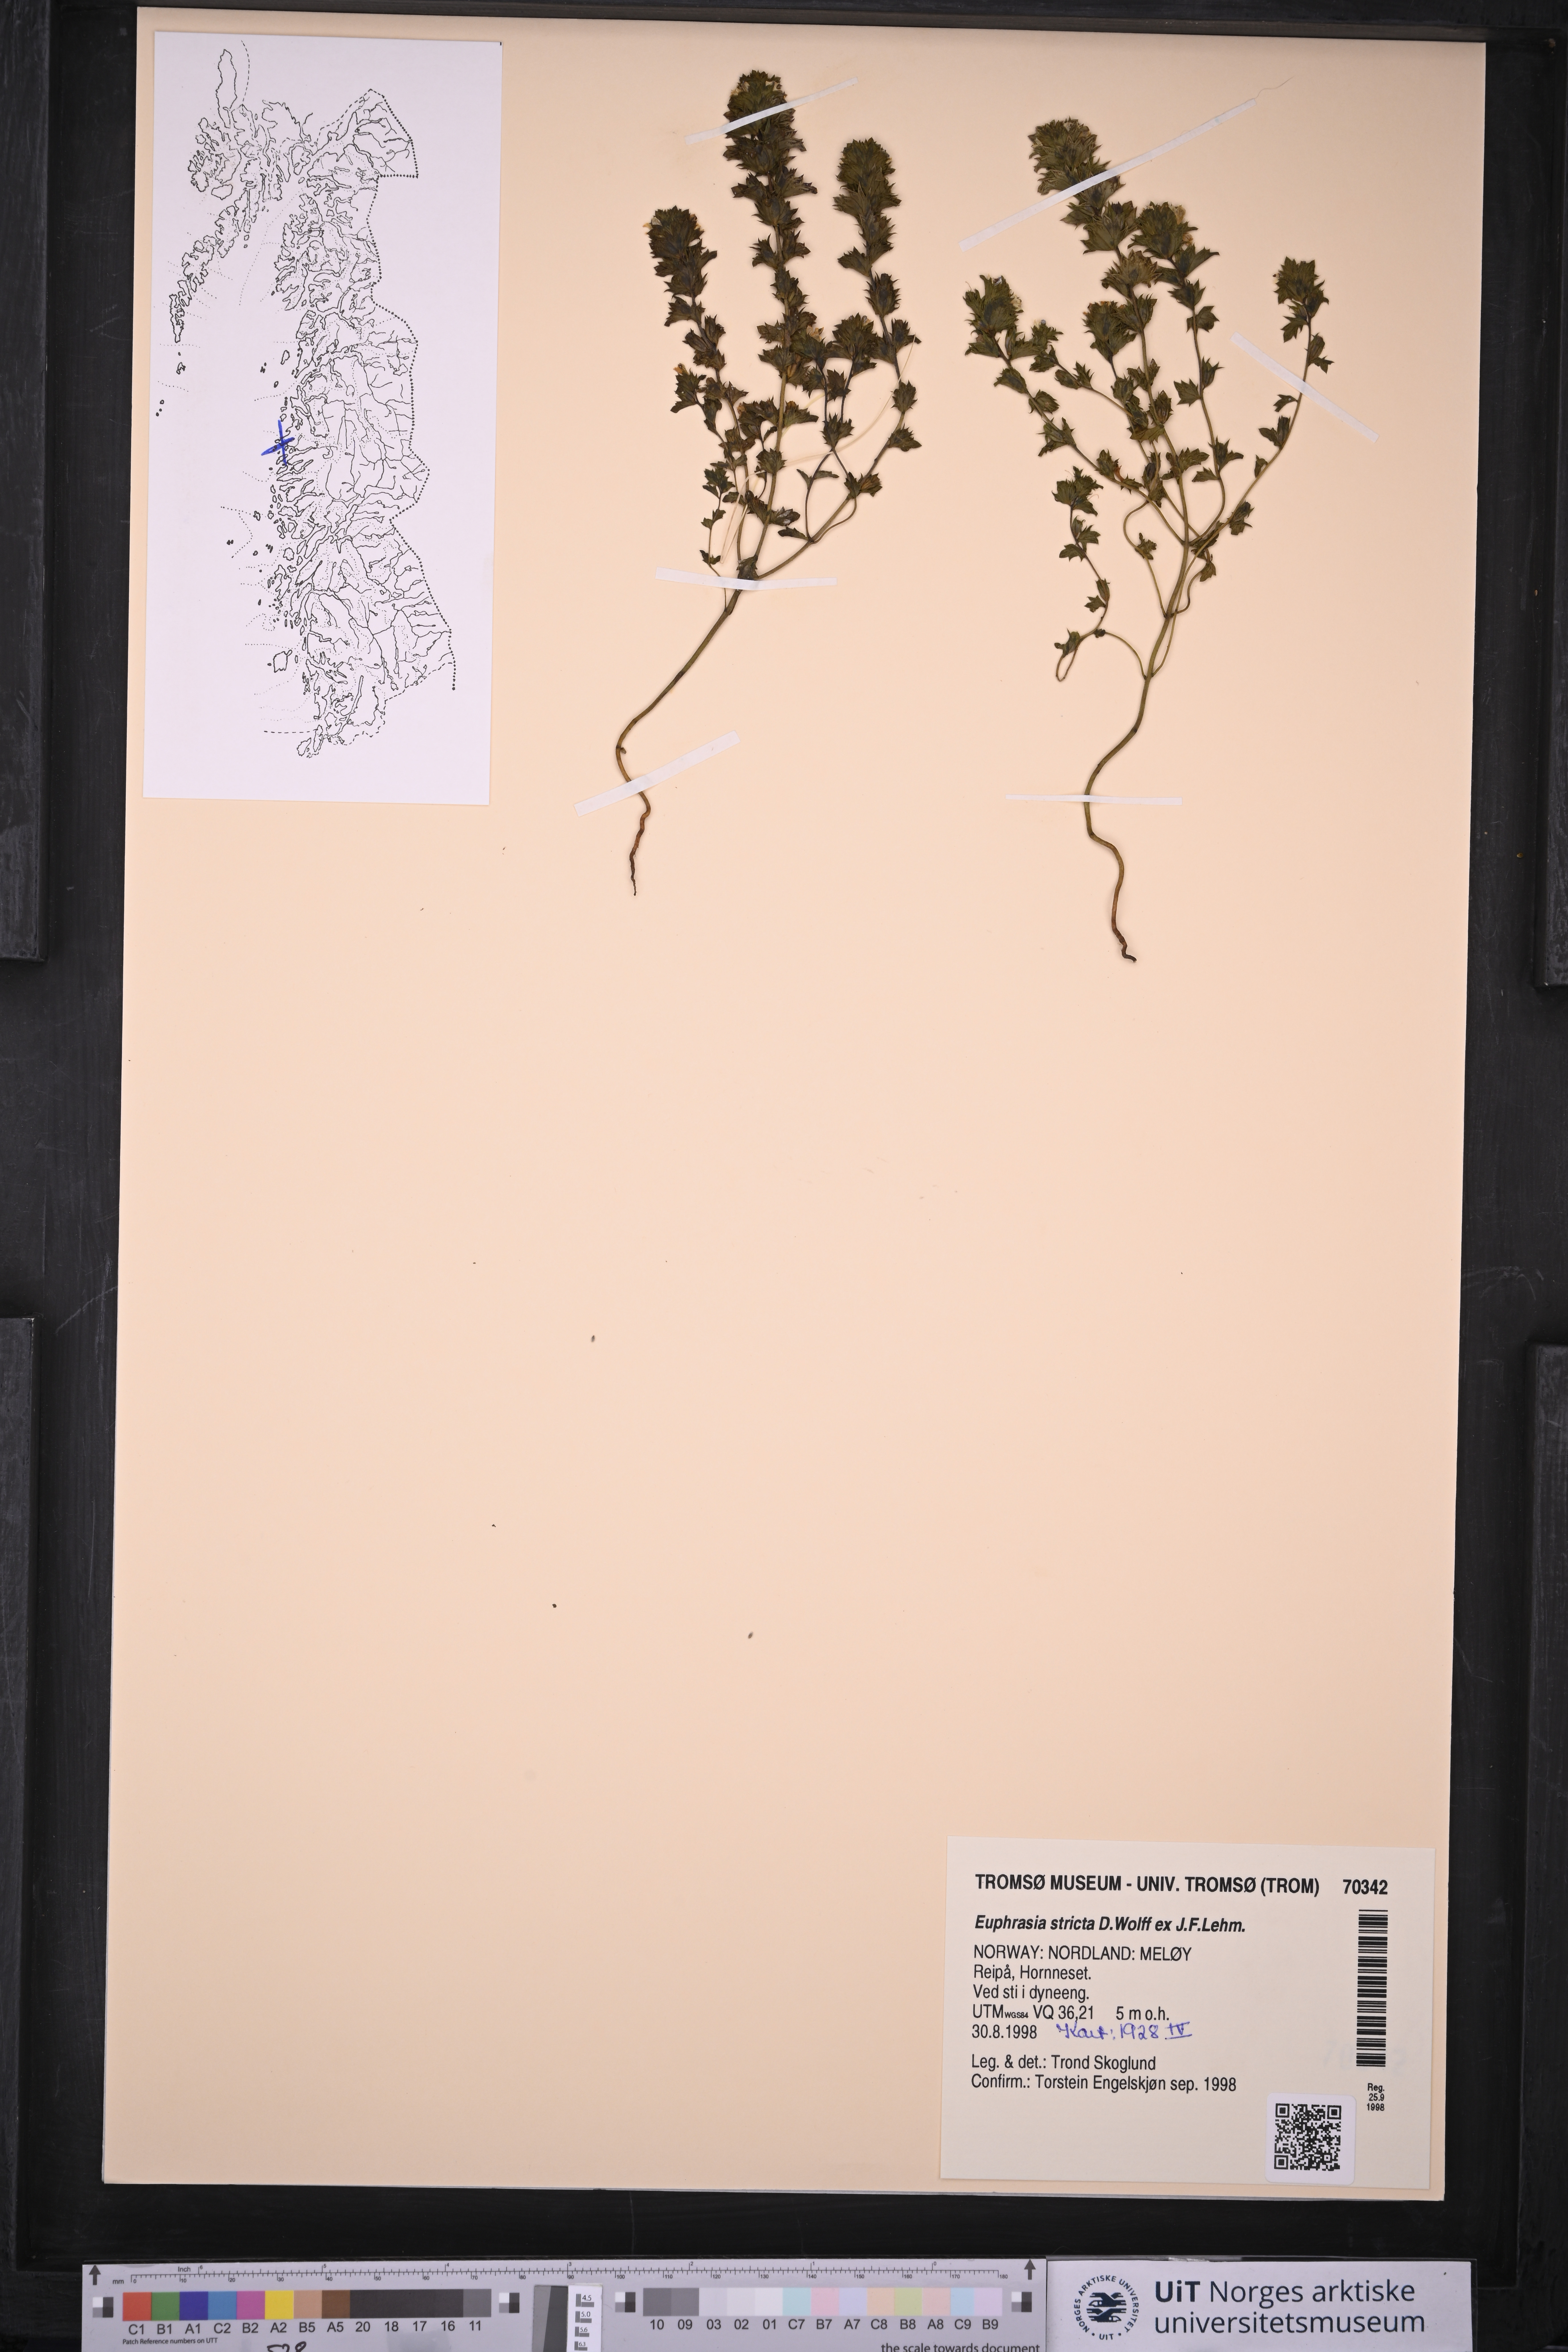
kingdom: Plantae
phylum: Tracheophyta
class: Magnoliopsida
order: Lamiales
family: Orobanchaceae
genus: Euphrasia
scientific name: Euphrasia stricta
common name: Drug eyebright
